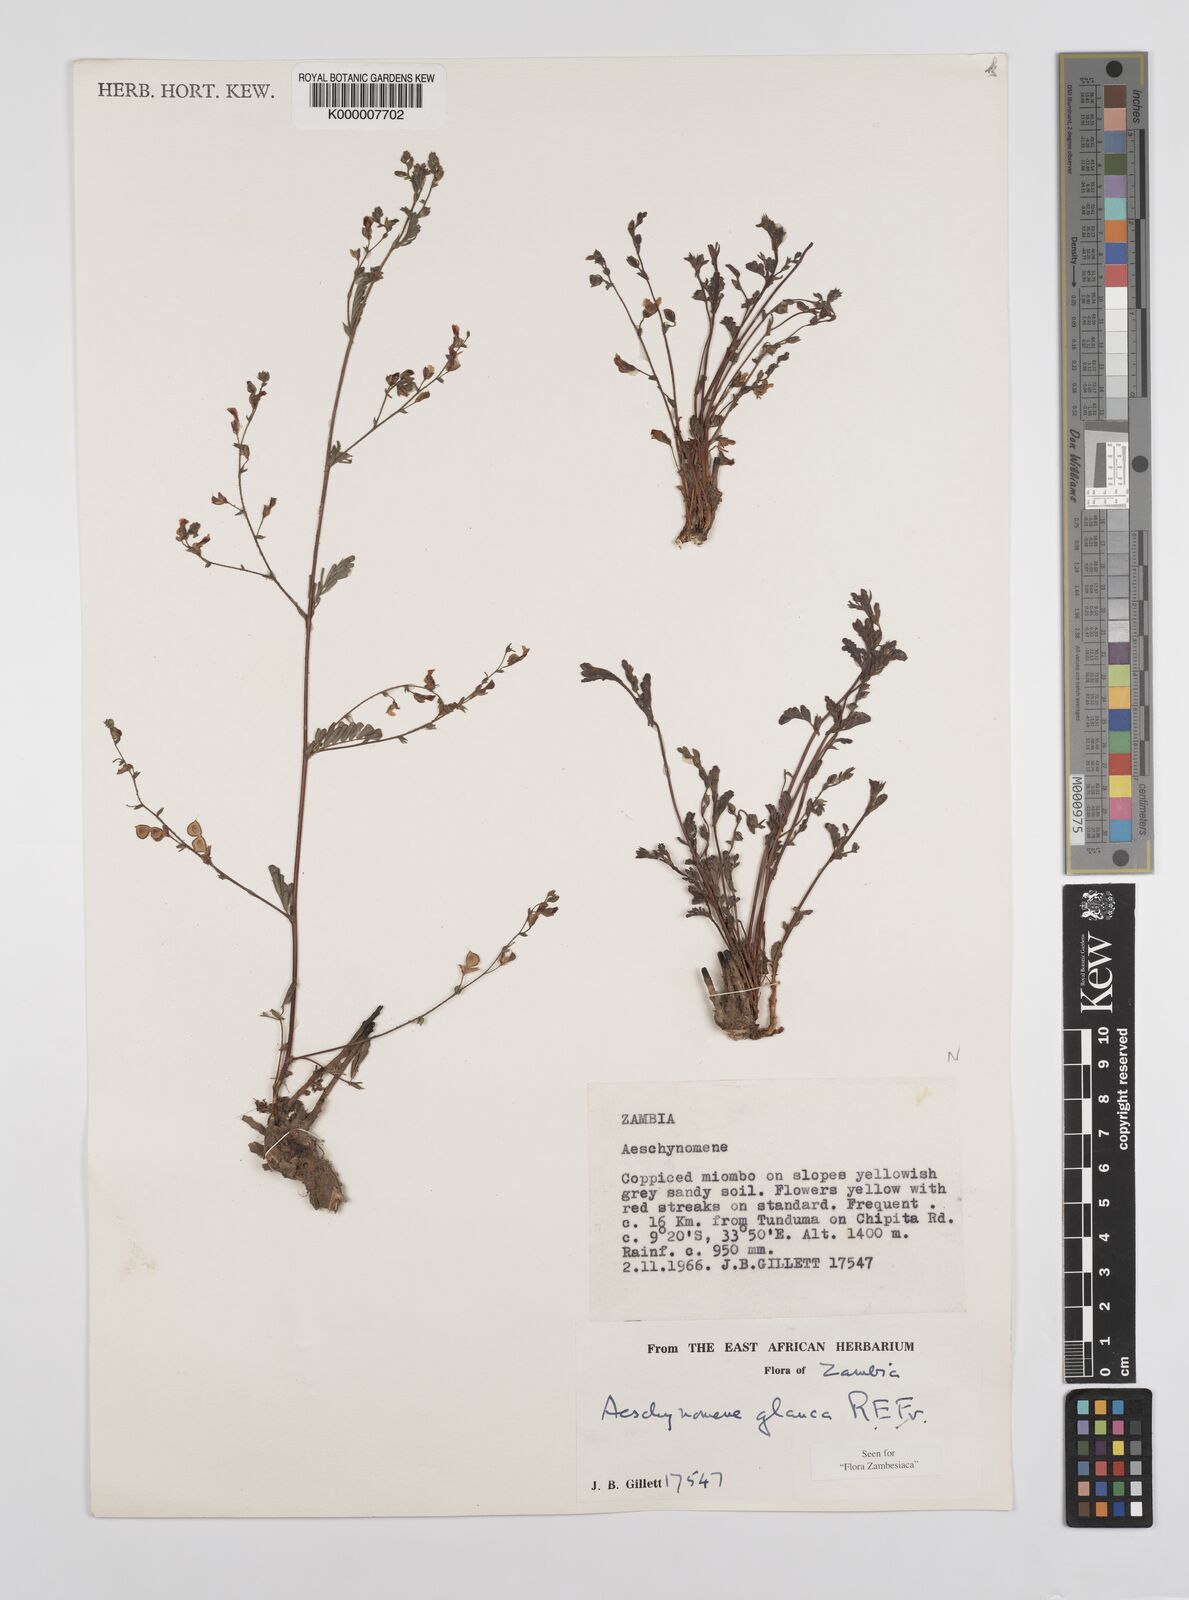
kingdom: Plantae
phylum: Tracheophyta
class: Magnoliopsida
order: Fabales
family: Fabaceae
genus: Aeschynomene
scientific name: Aeschynomene glauca
